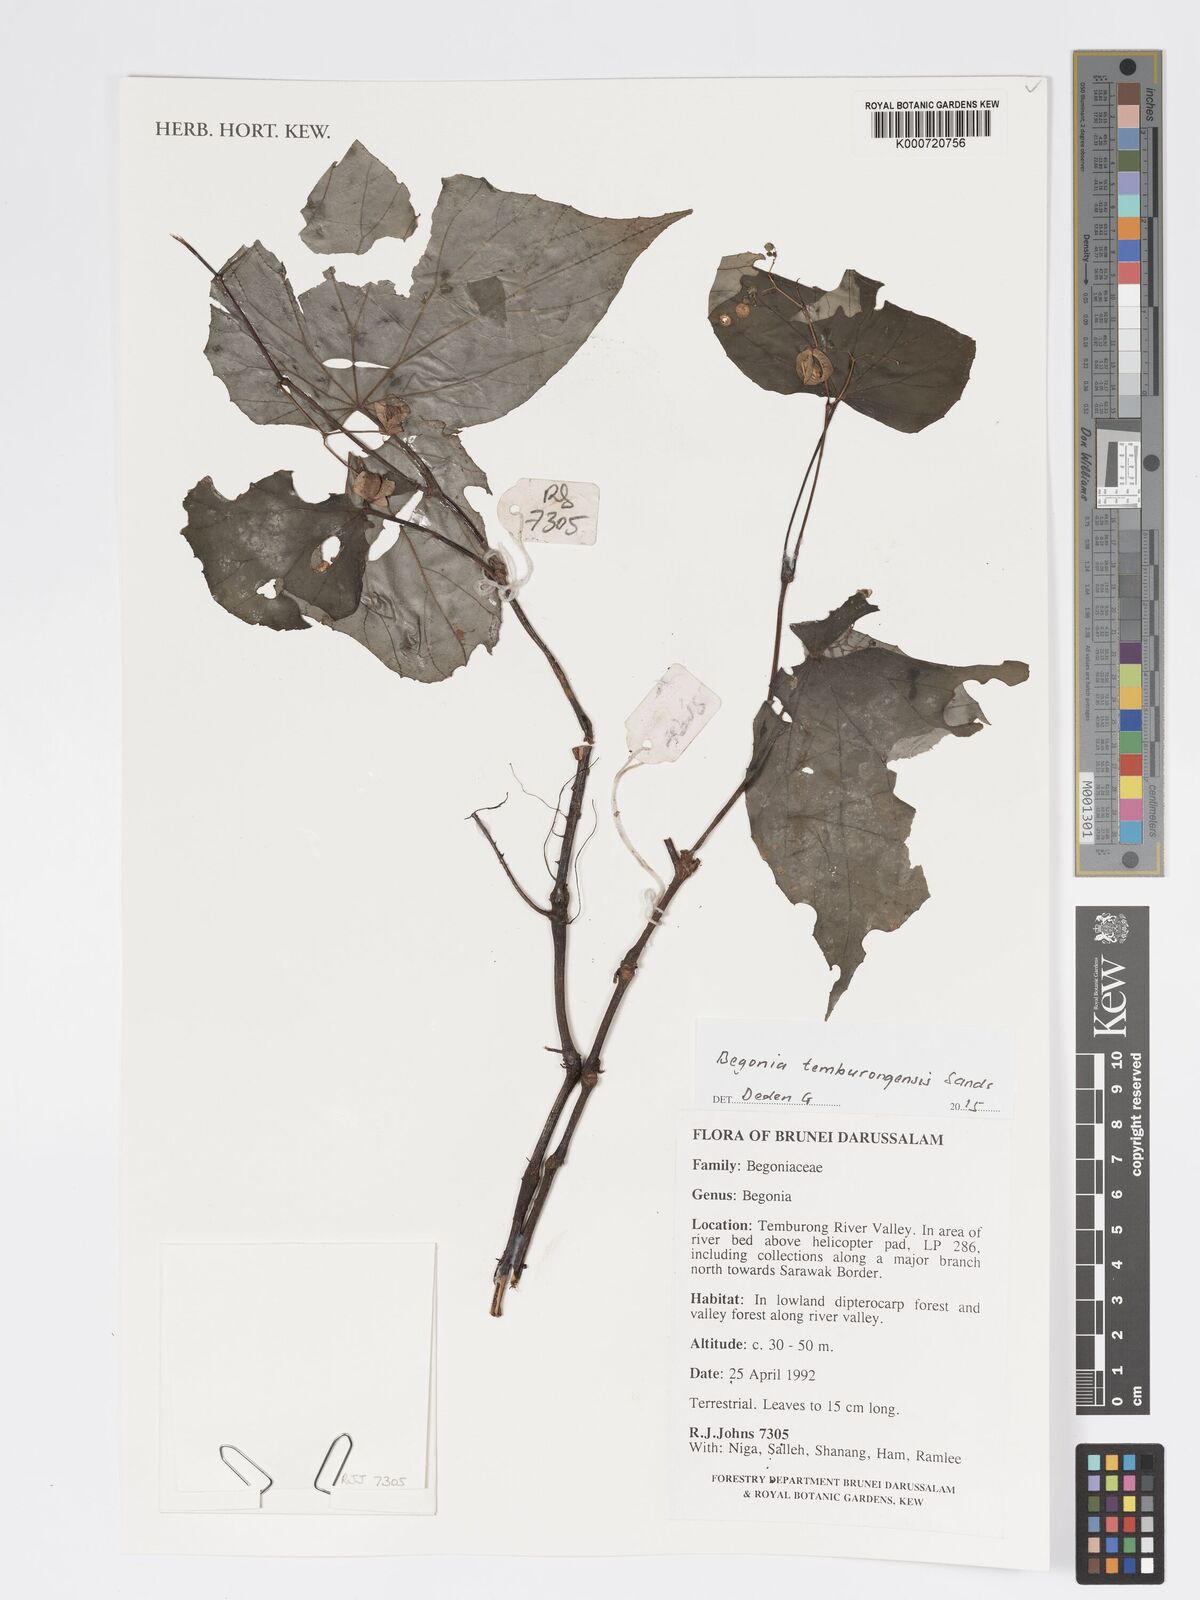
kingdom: Plantae
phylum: Tracheophyta
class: Magnoliopsida
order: Cucurbitales
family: Begoniaceae
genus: Begonia
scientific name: Begonia temburongensis
